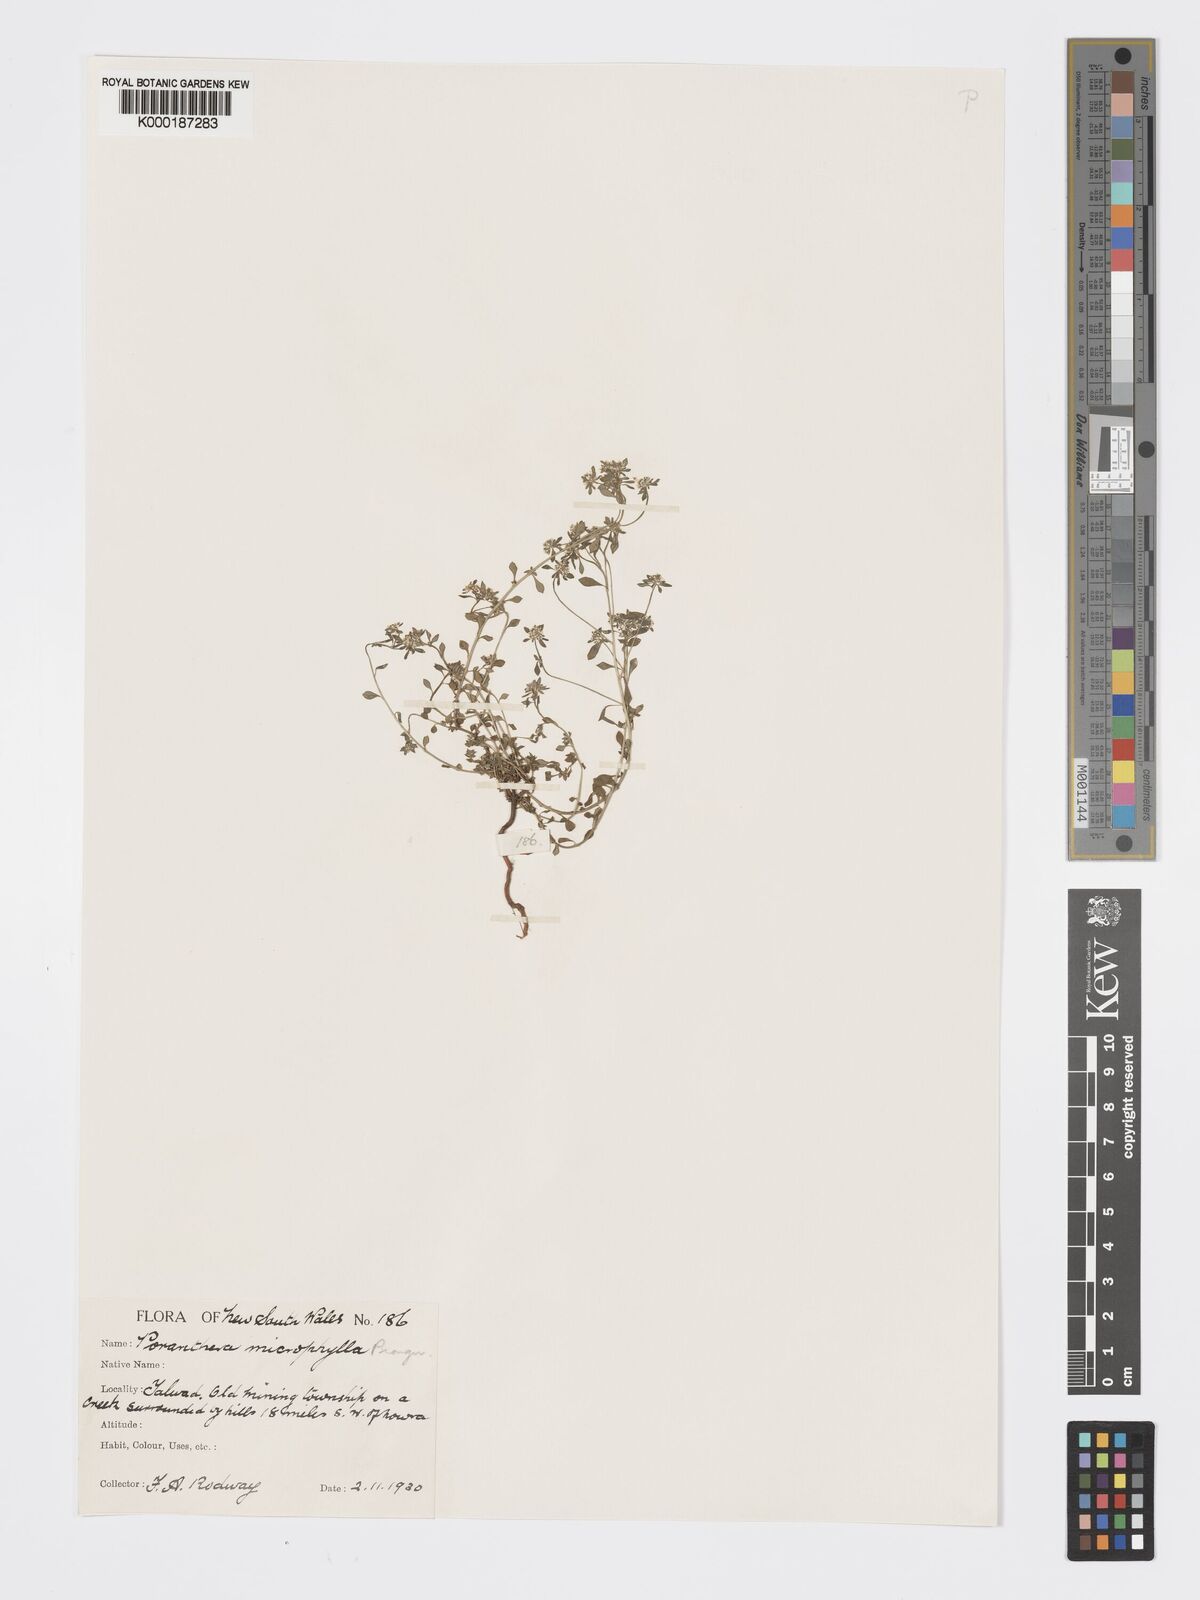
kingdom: Plantae
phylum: Tracheophyta
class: Magnoliopsida
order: Malpighiales
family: Phyllanthaceae
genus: Poranthera
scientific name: Poranthera microphylla
